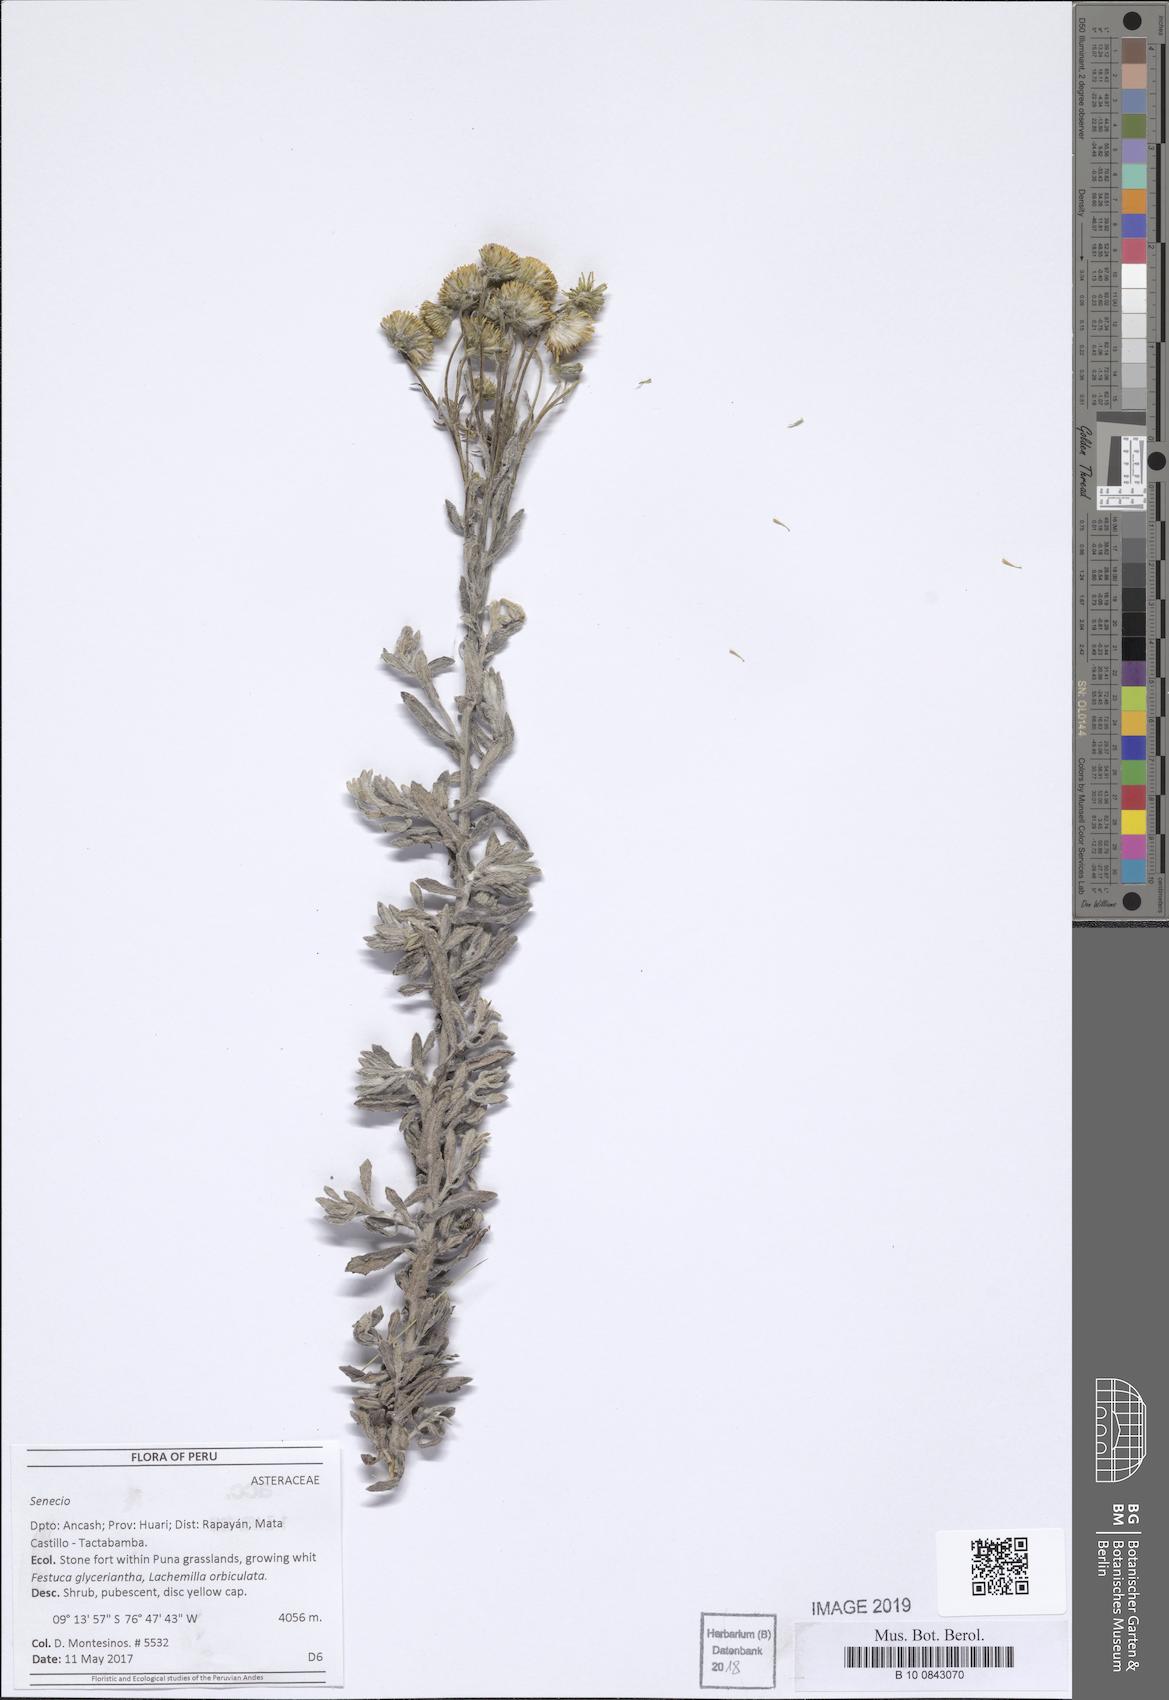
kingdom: Plantae
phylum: Tracheophyta
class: Magnoliopsida
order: Asterales
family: Asteraceae
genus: Senecio
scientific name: Senecio featherstonei
